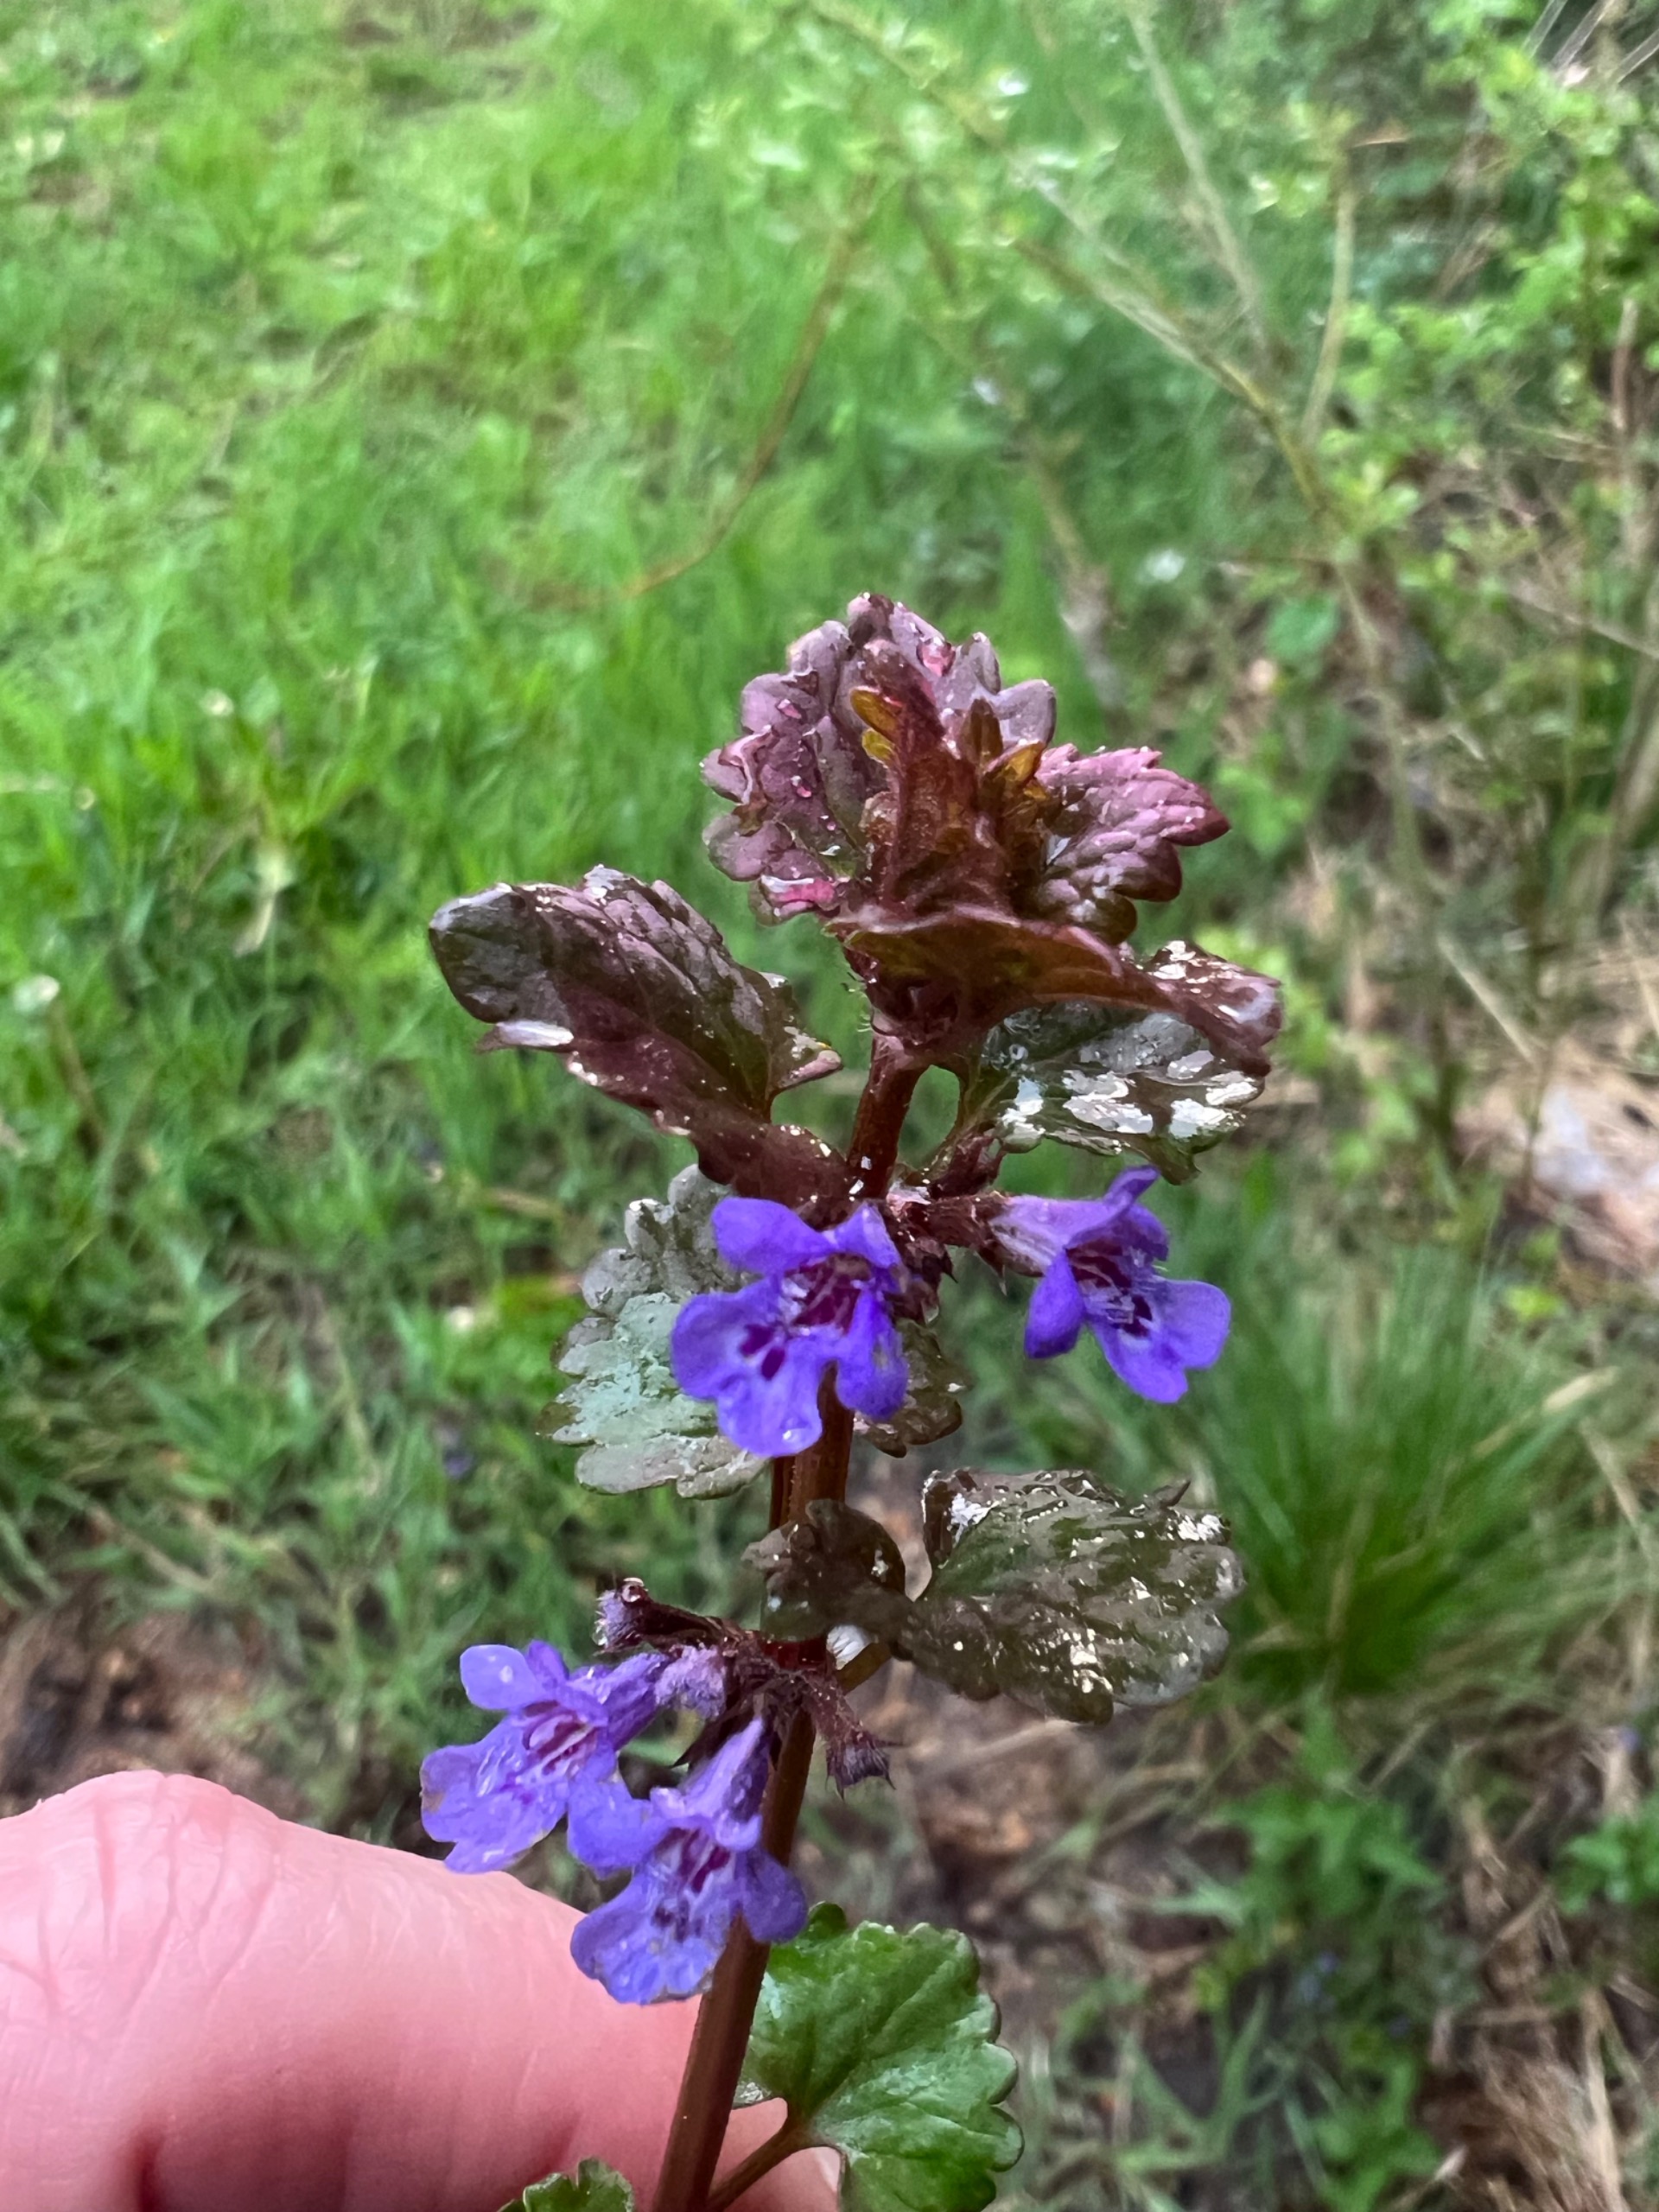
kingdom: Plantae
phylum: Tracheophyta
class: Magnoliopsida
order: Lamiales
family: Lamiaceae
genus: Glechoma
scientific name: Glechoma hederacea
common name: Korsknap
